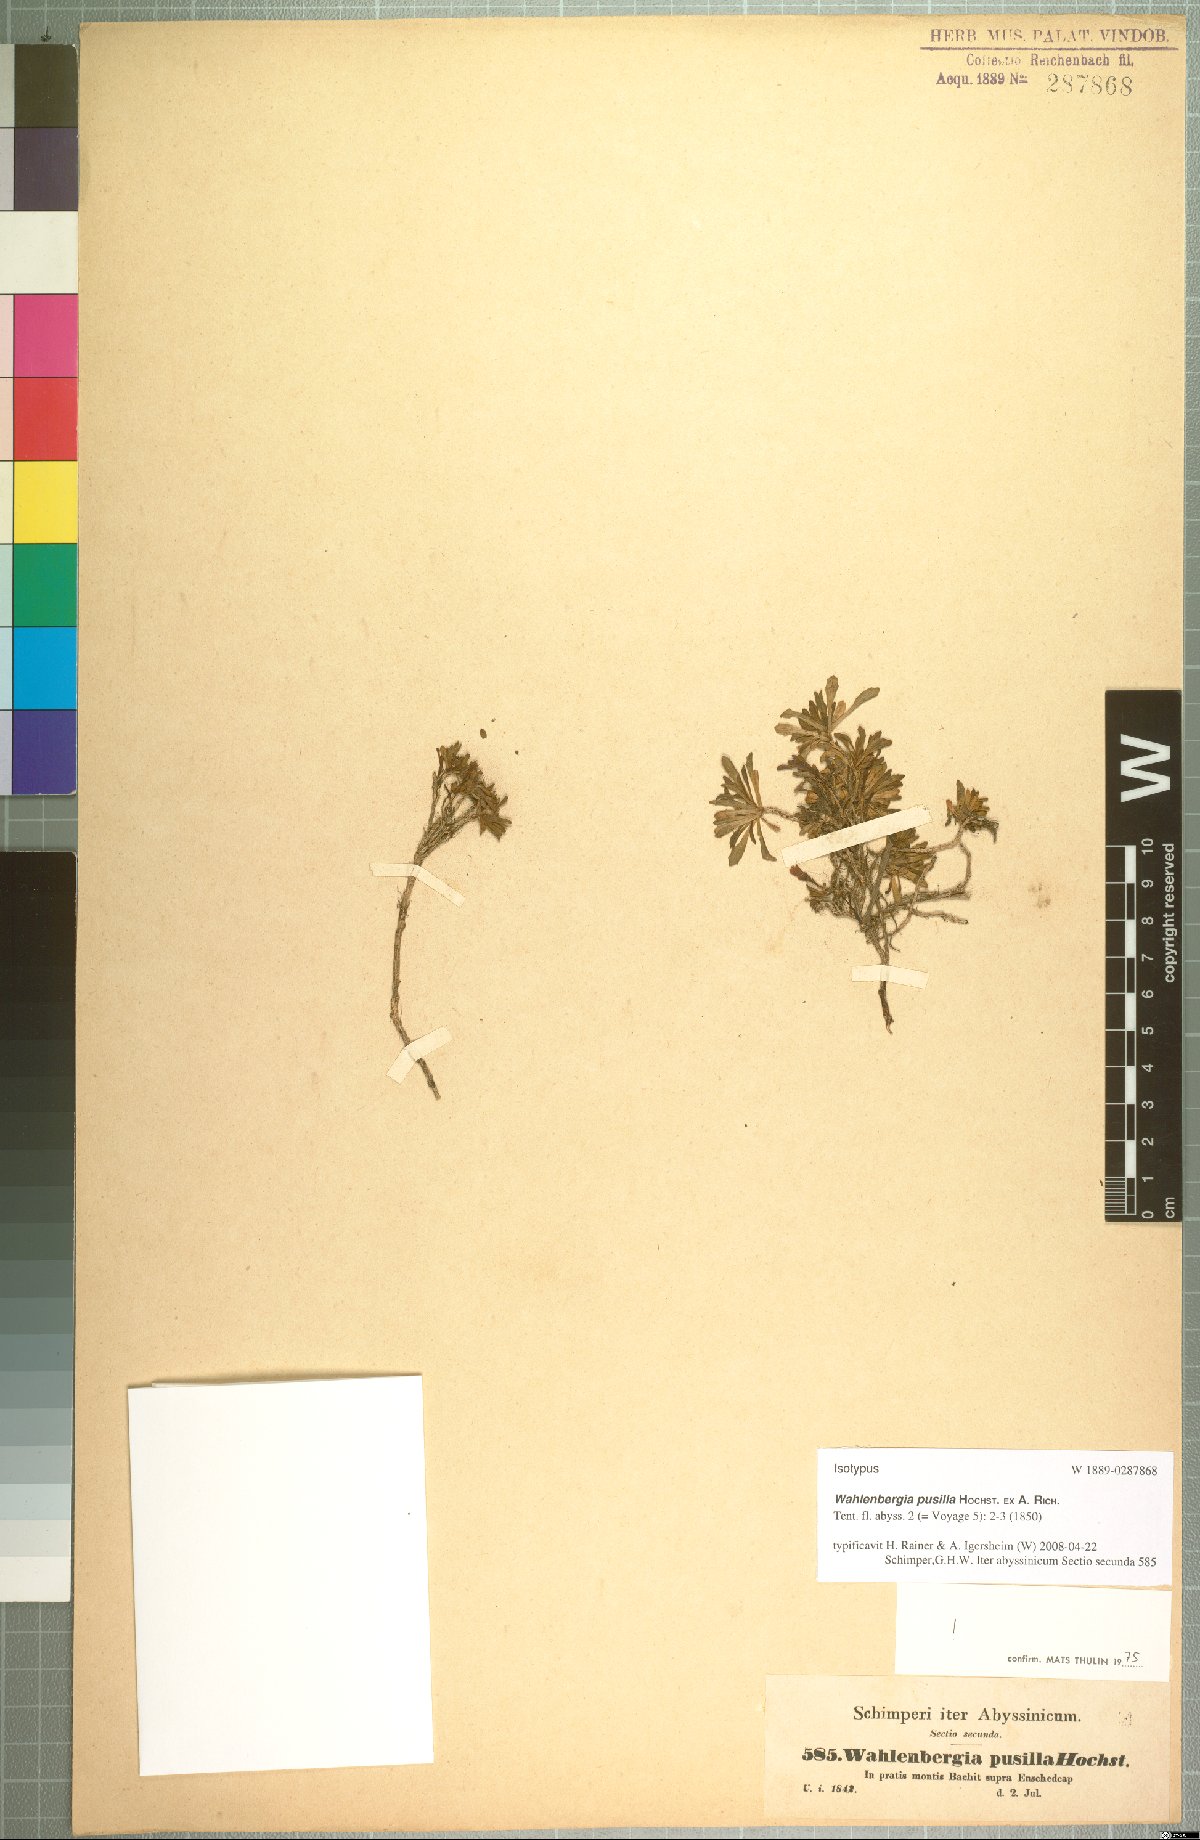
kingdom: Plantae
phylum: Tracheophyta
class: Magnoliopsida
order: Asterales
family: Campanulaceae
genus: Wahlenbergia
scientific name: Wahlenbergia pusilla
